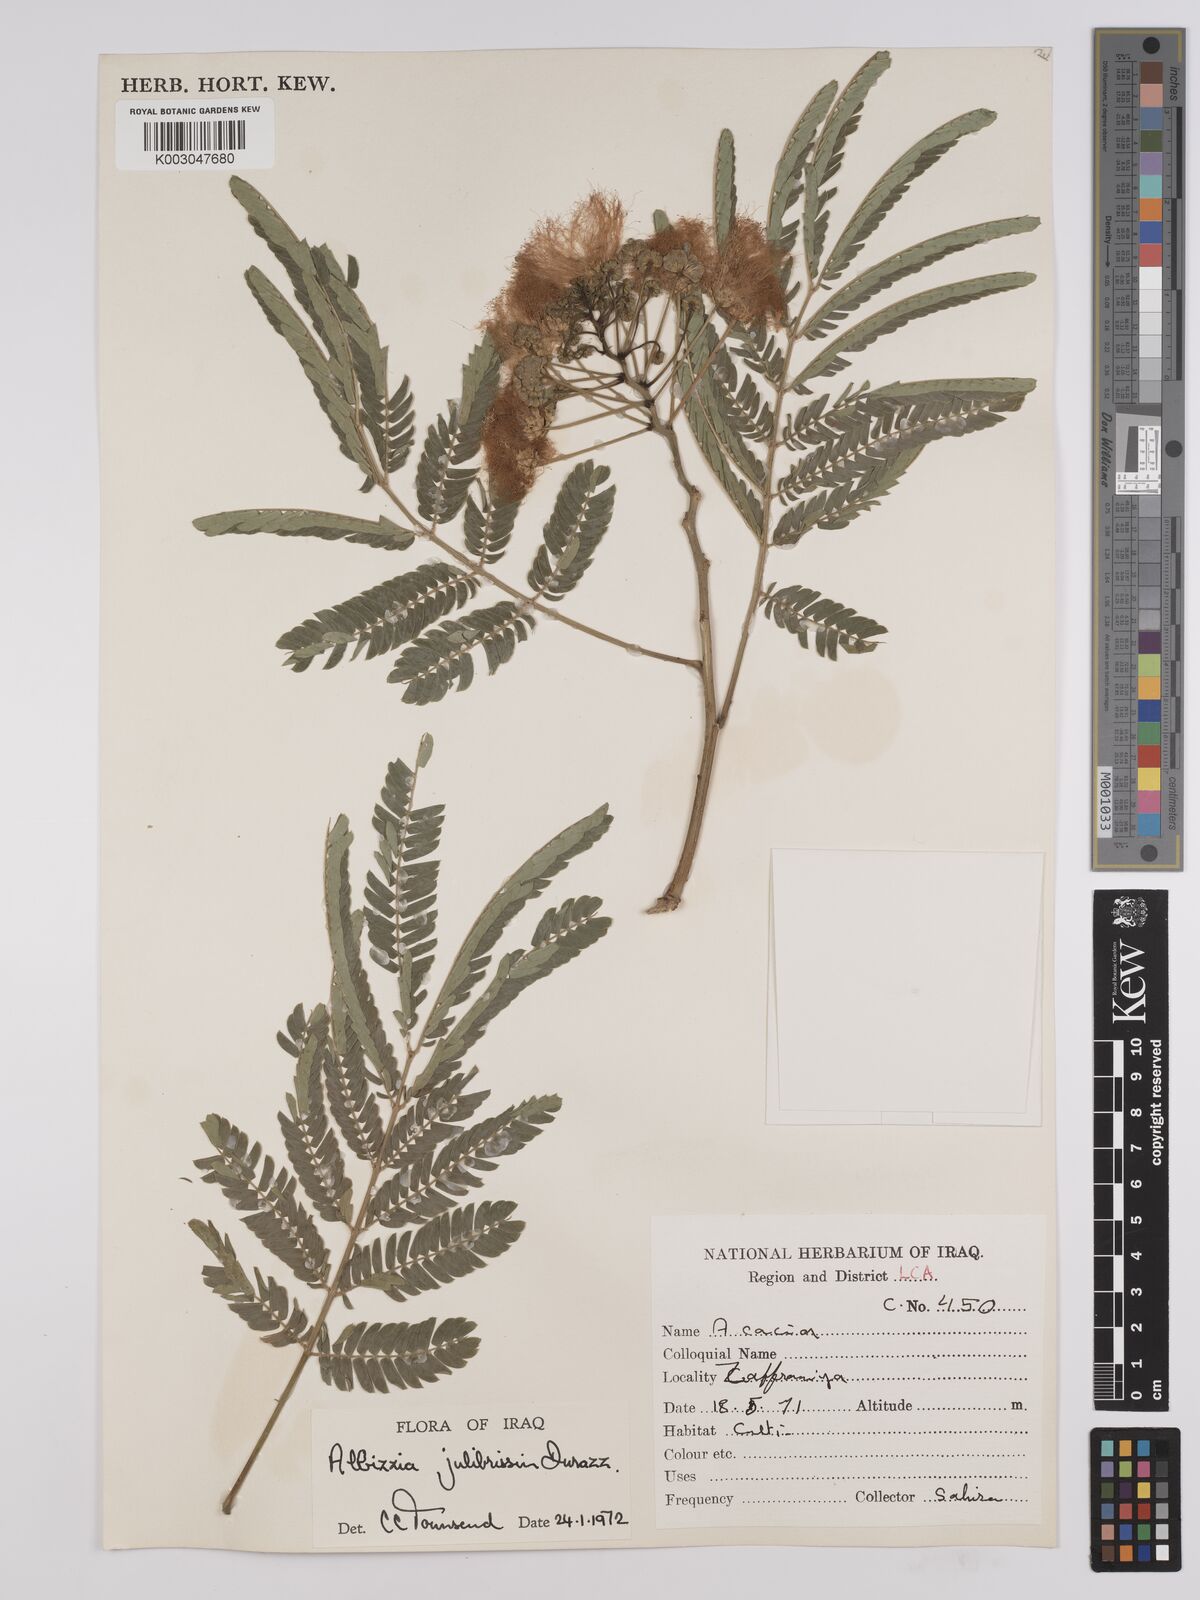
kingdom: Plantae
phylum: Tracheophyta
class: Magnoliopsida
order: Fabales
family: Fabaceae
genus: Albizia
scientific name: Albizia julibrissin
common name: Silktree
